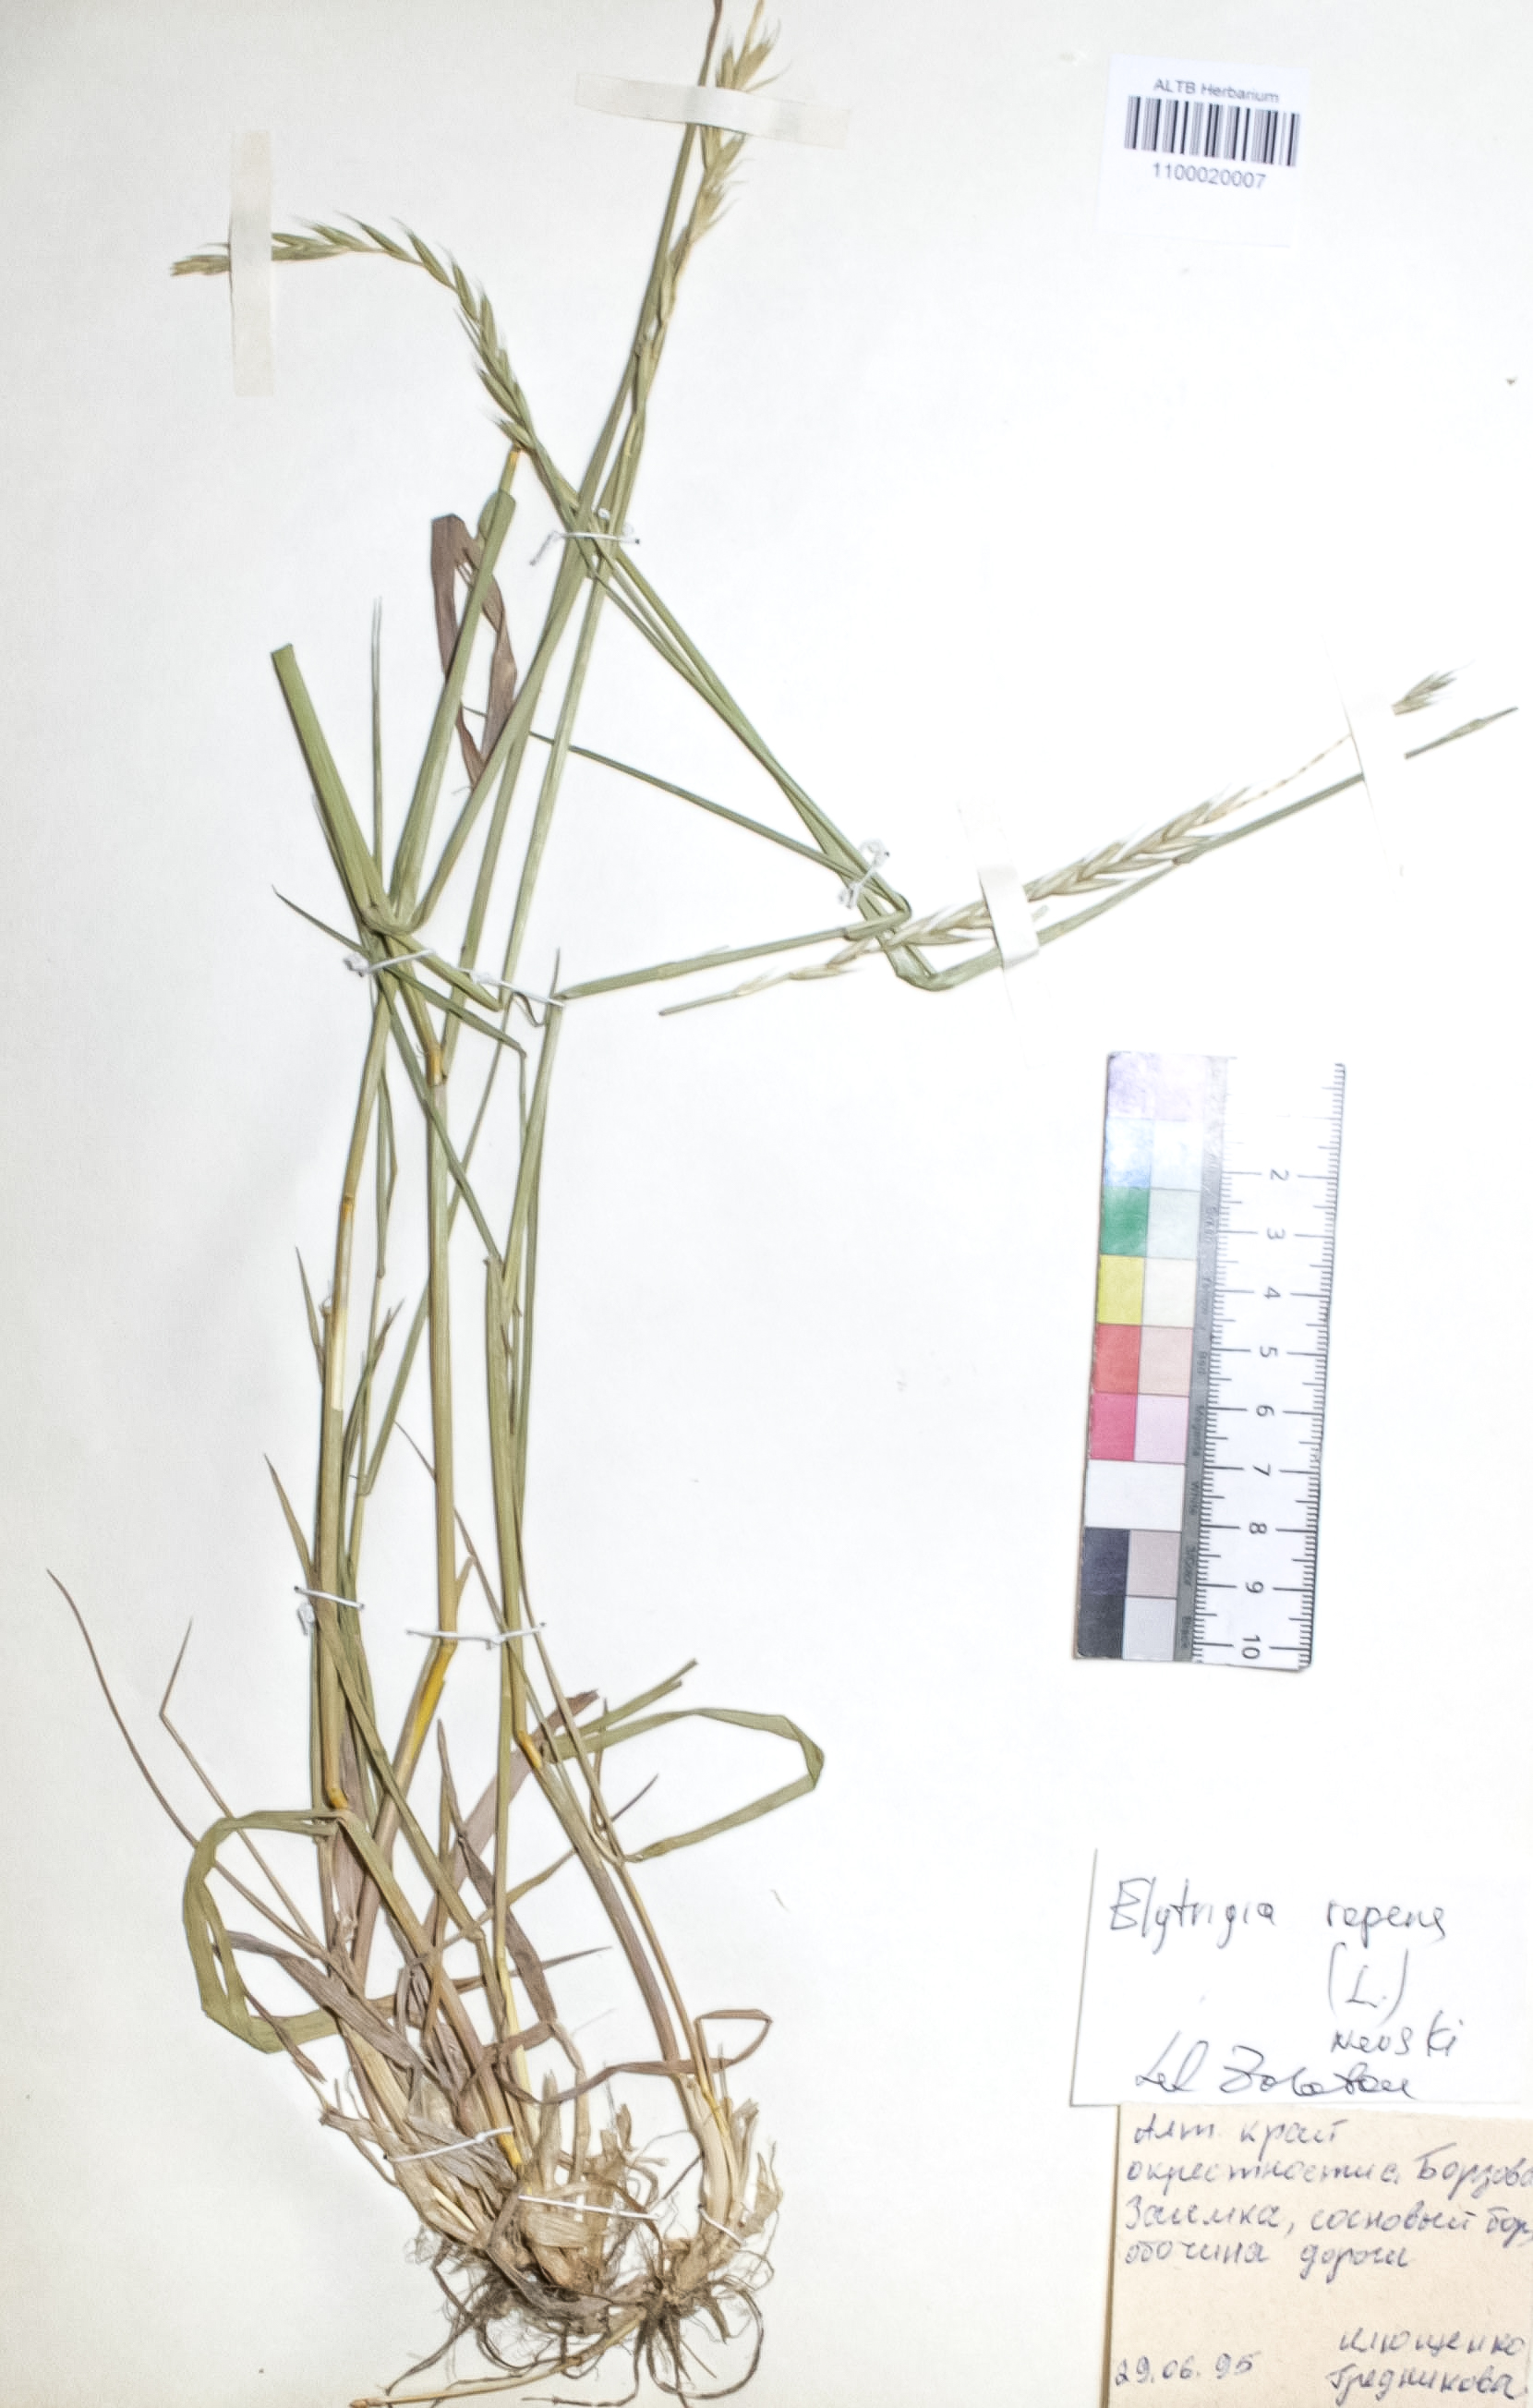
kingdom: Plantae
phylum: Tracheophyta
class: Liliopsida
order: Poales
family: Poaceae
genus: Elymus
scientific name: Elymus repens
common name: Quackgrass
